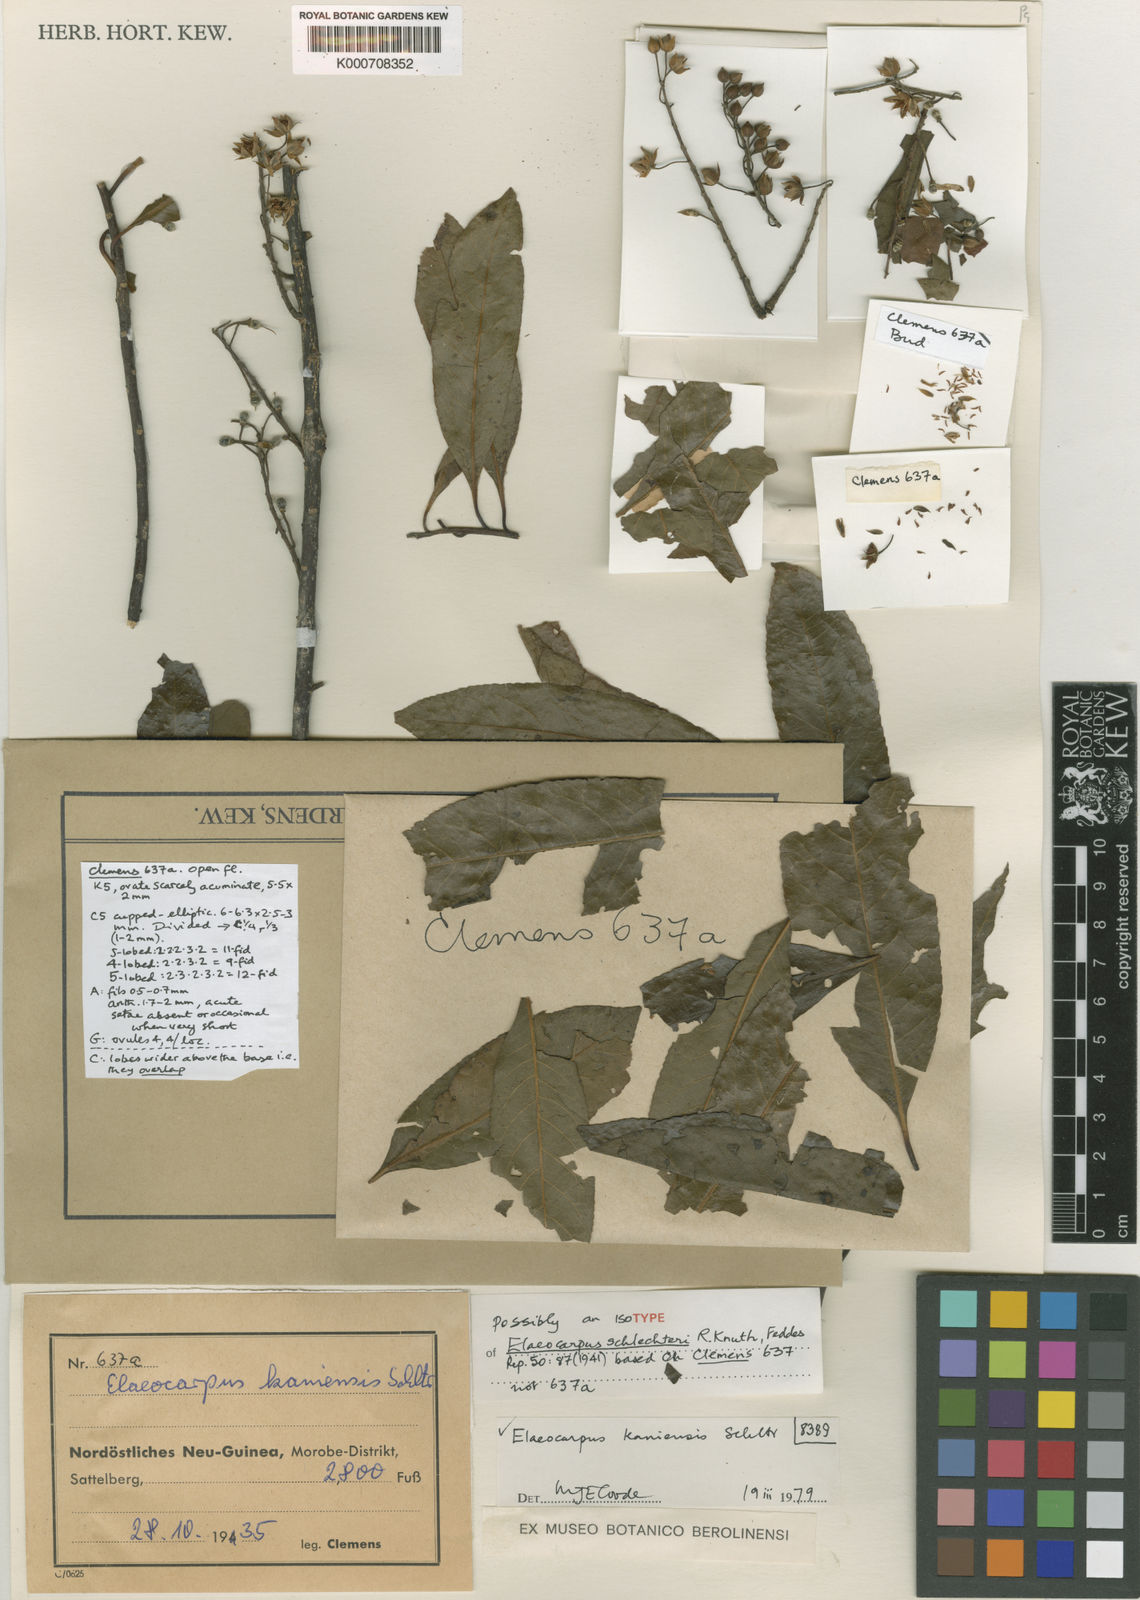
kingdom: Plantae
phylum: Tracheophyta
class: Magnoliopsida
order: Oxalidales
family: Elaeocarpaceae
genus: Elaeocarpus
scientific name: Elaeocarpus kaniensis
